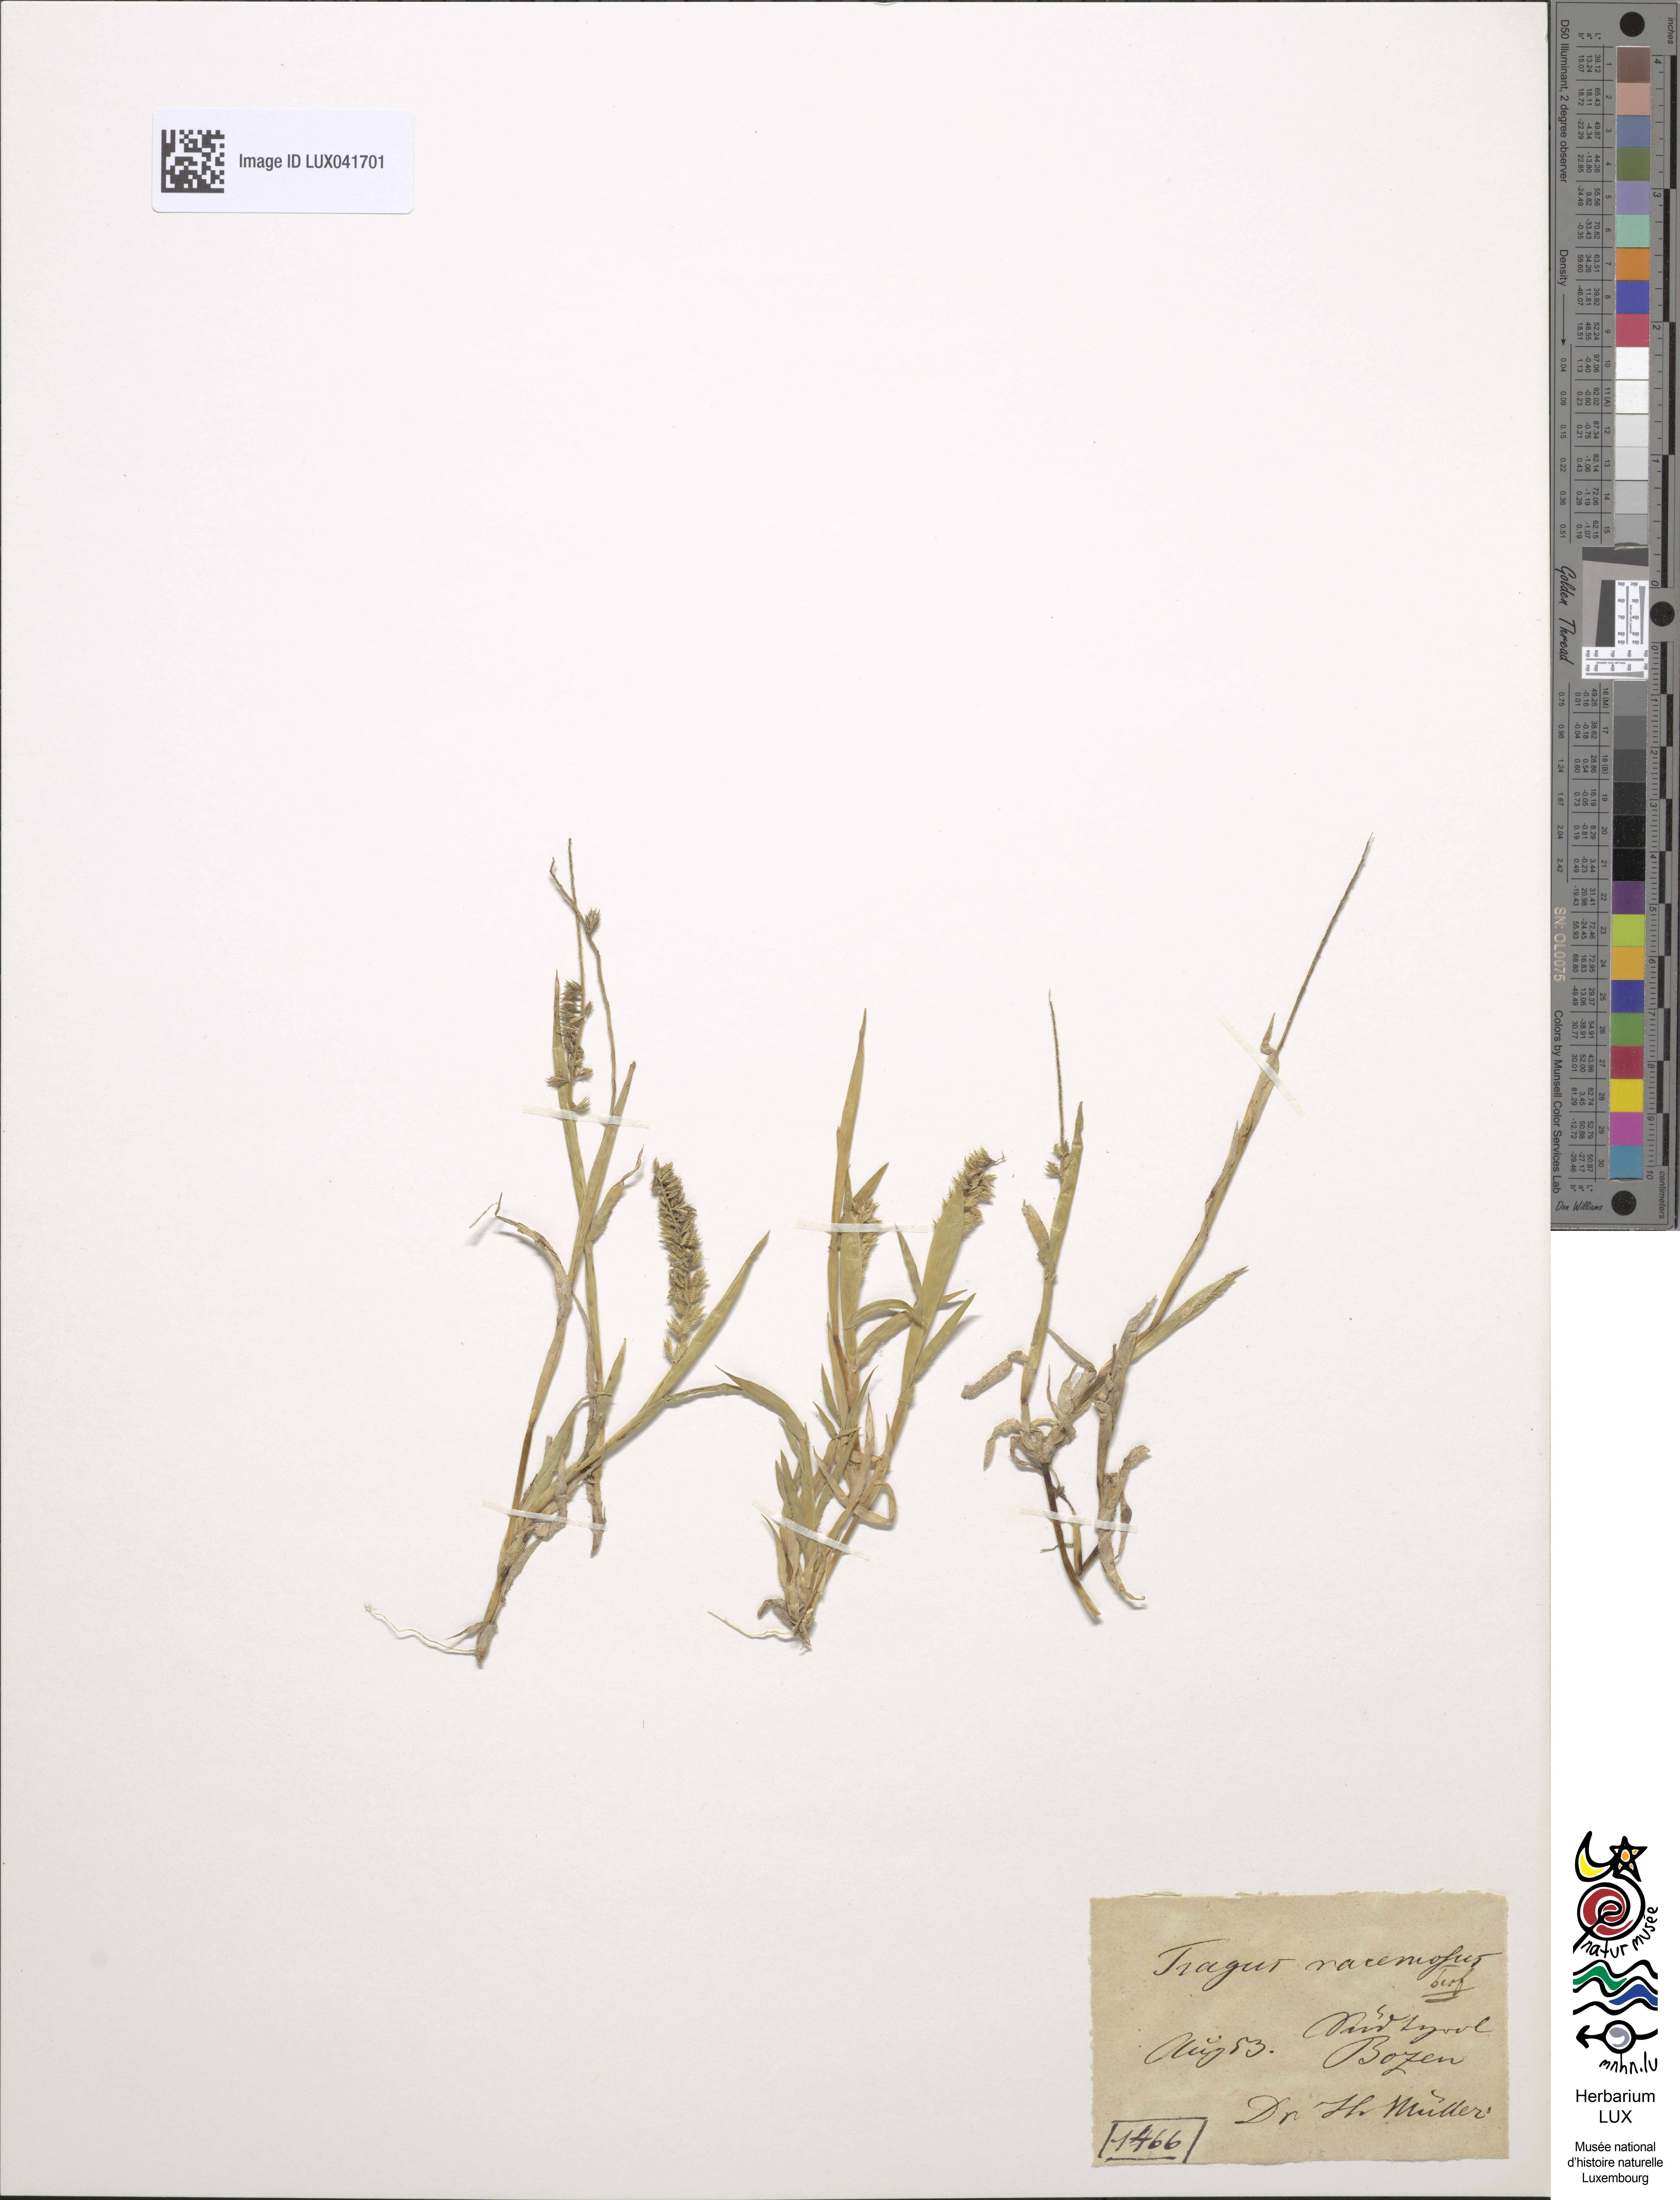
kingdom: Plantae
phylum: Tracheophyta
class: Liliopsida
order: Poales
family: Poaceae
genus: Tragus
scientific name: Tragus racemosus
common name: European bur-grass
